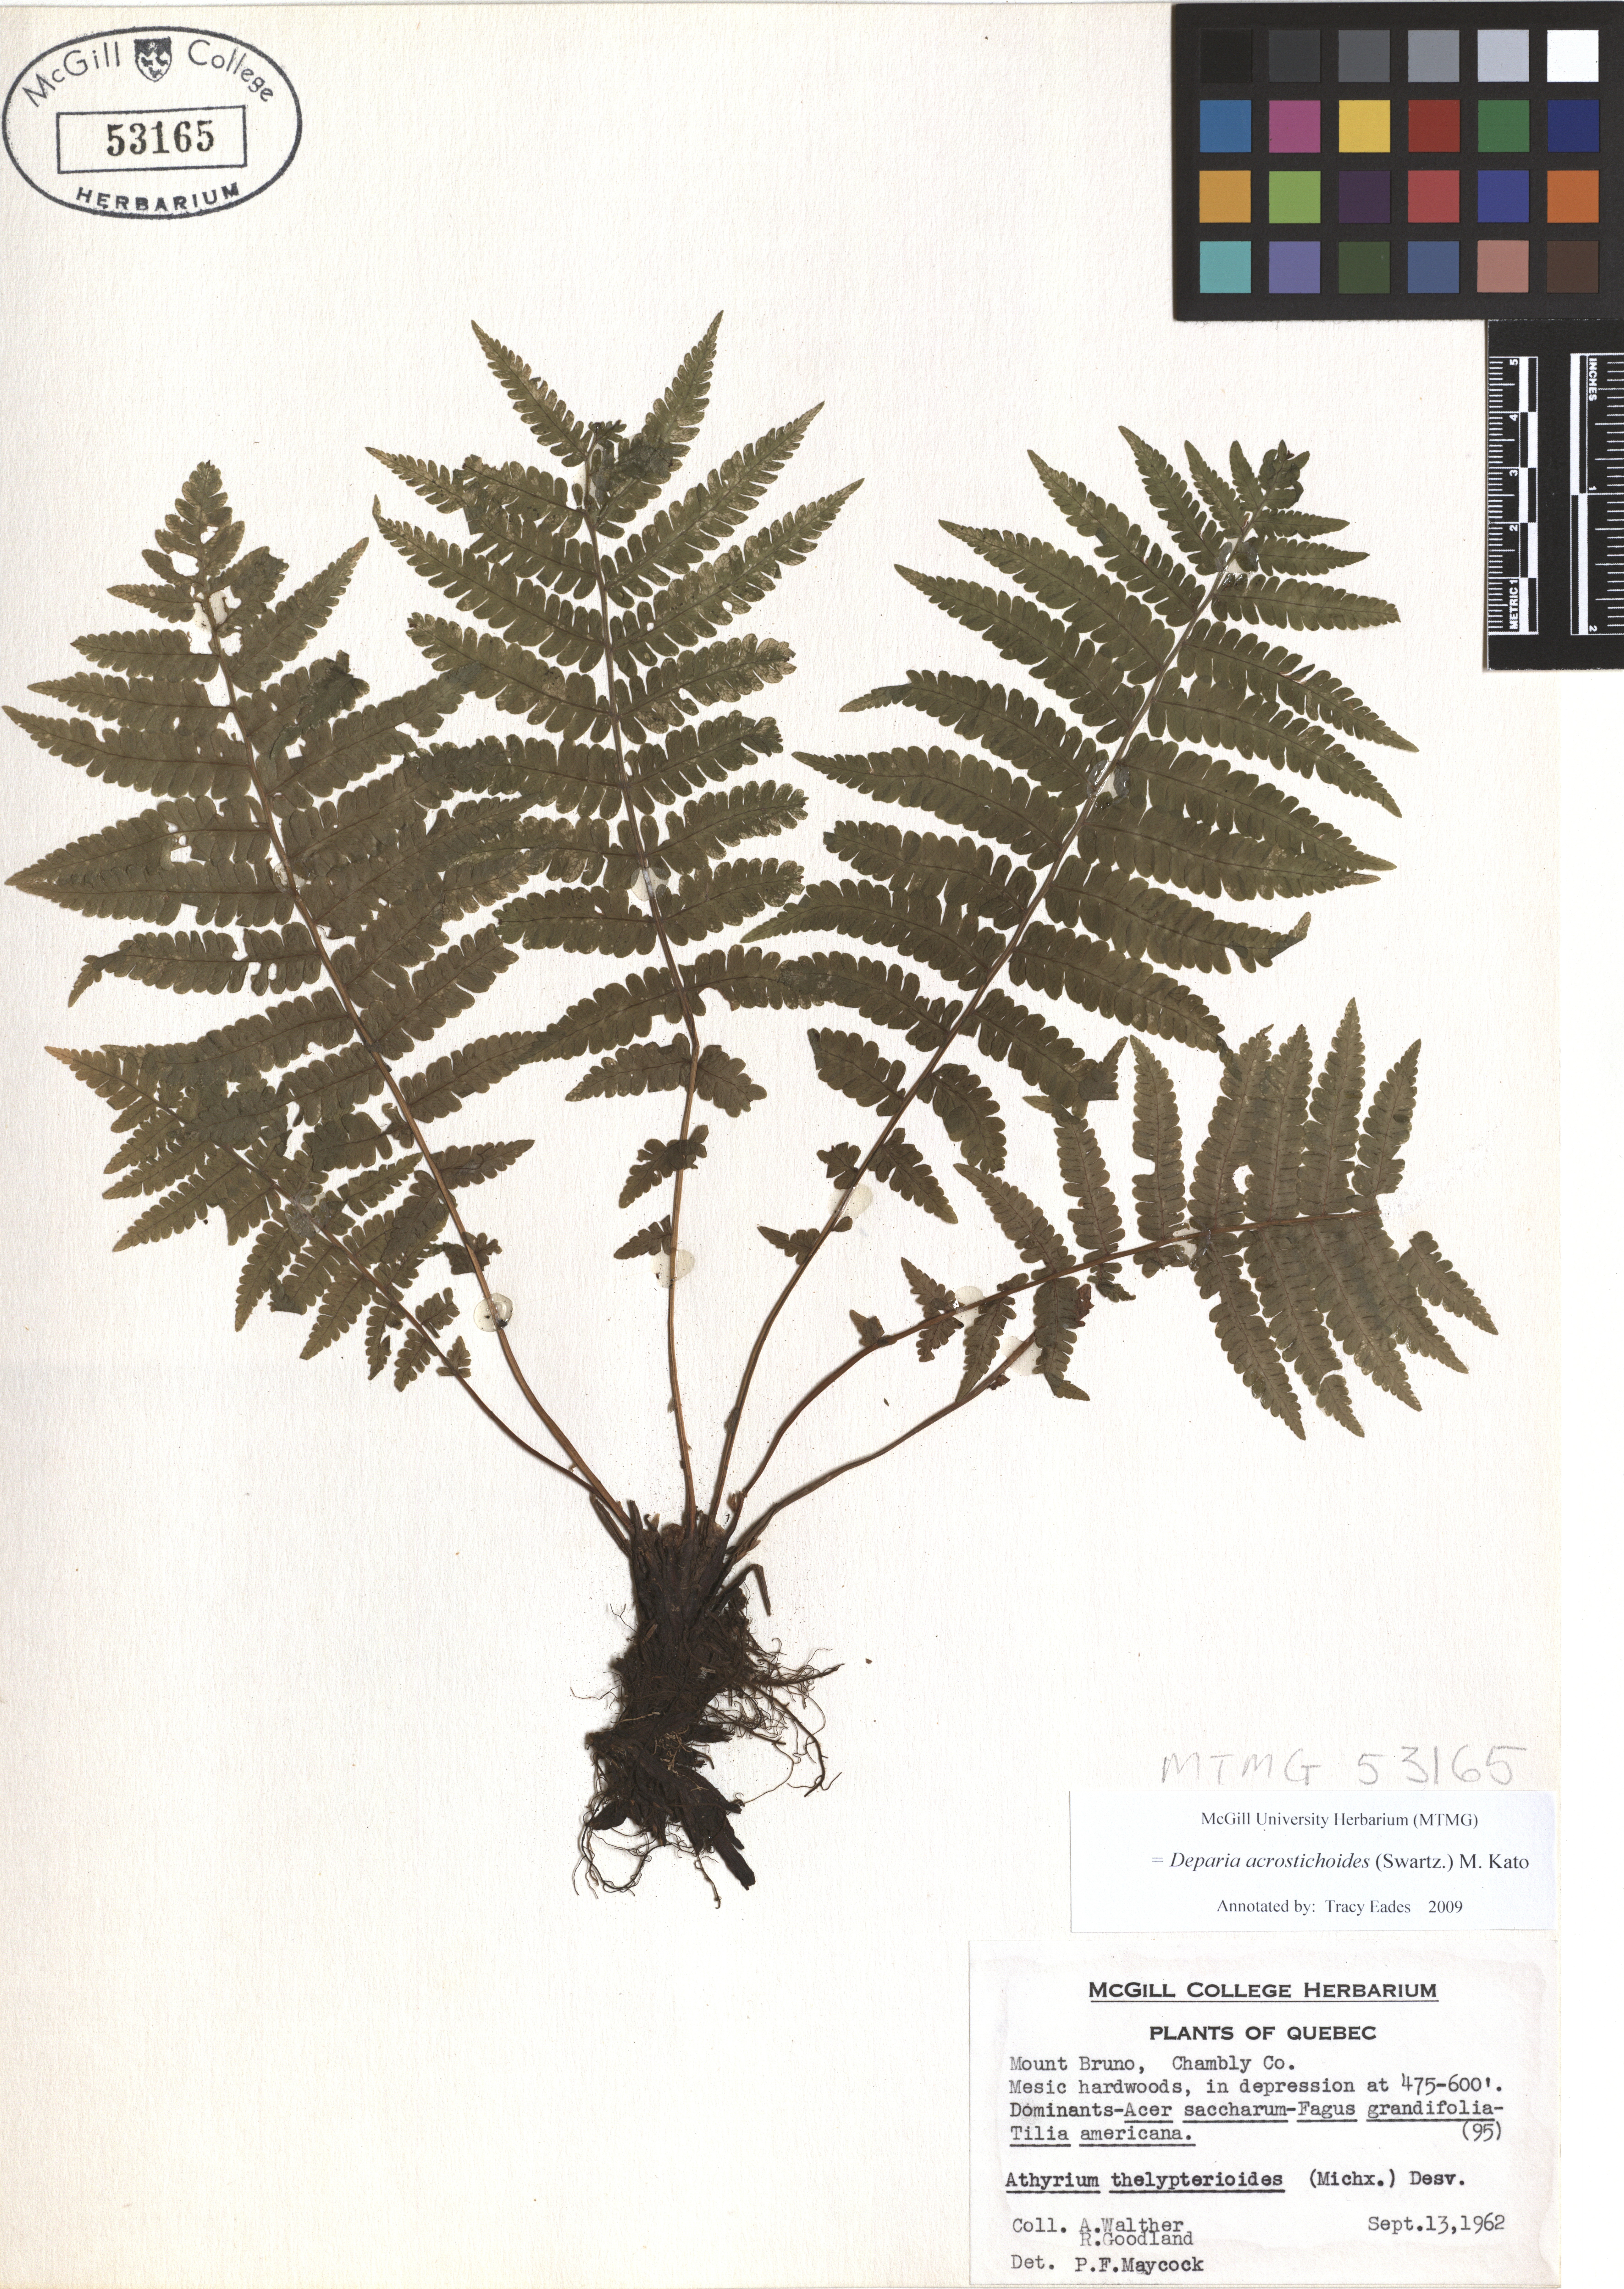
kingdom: Plantae
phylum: Tracheophyta
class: Polypodiopsida
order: Polypodiales
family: Athyriaceae
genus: Deparia
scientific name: Deparia acrostichoides
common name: Silver false spleenwort
